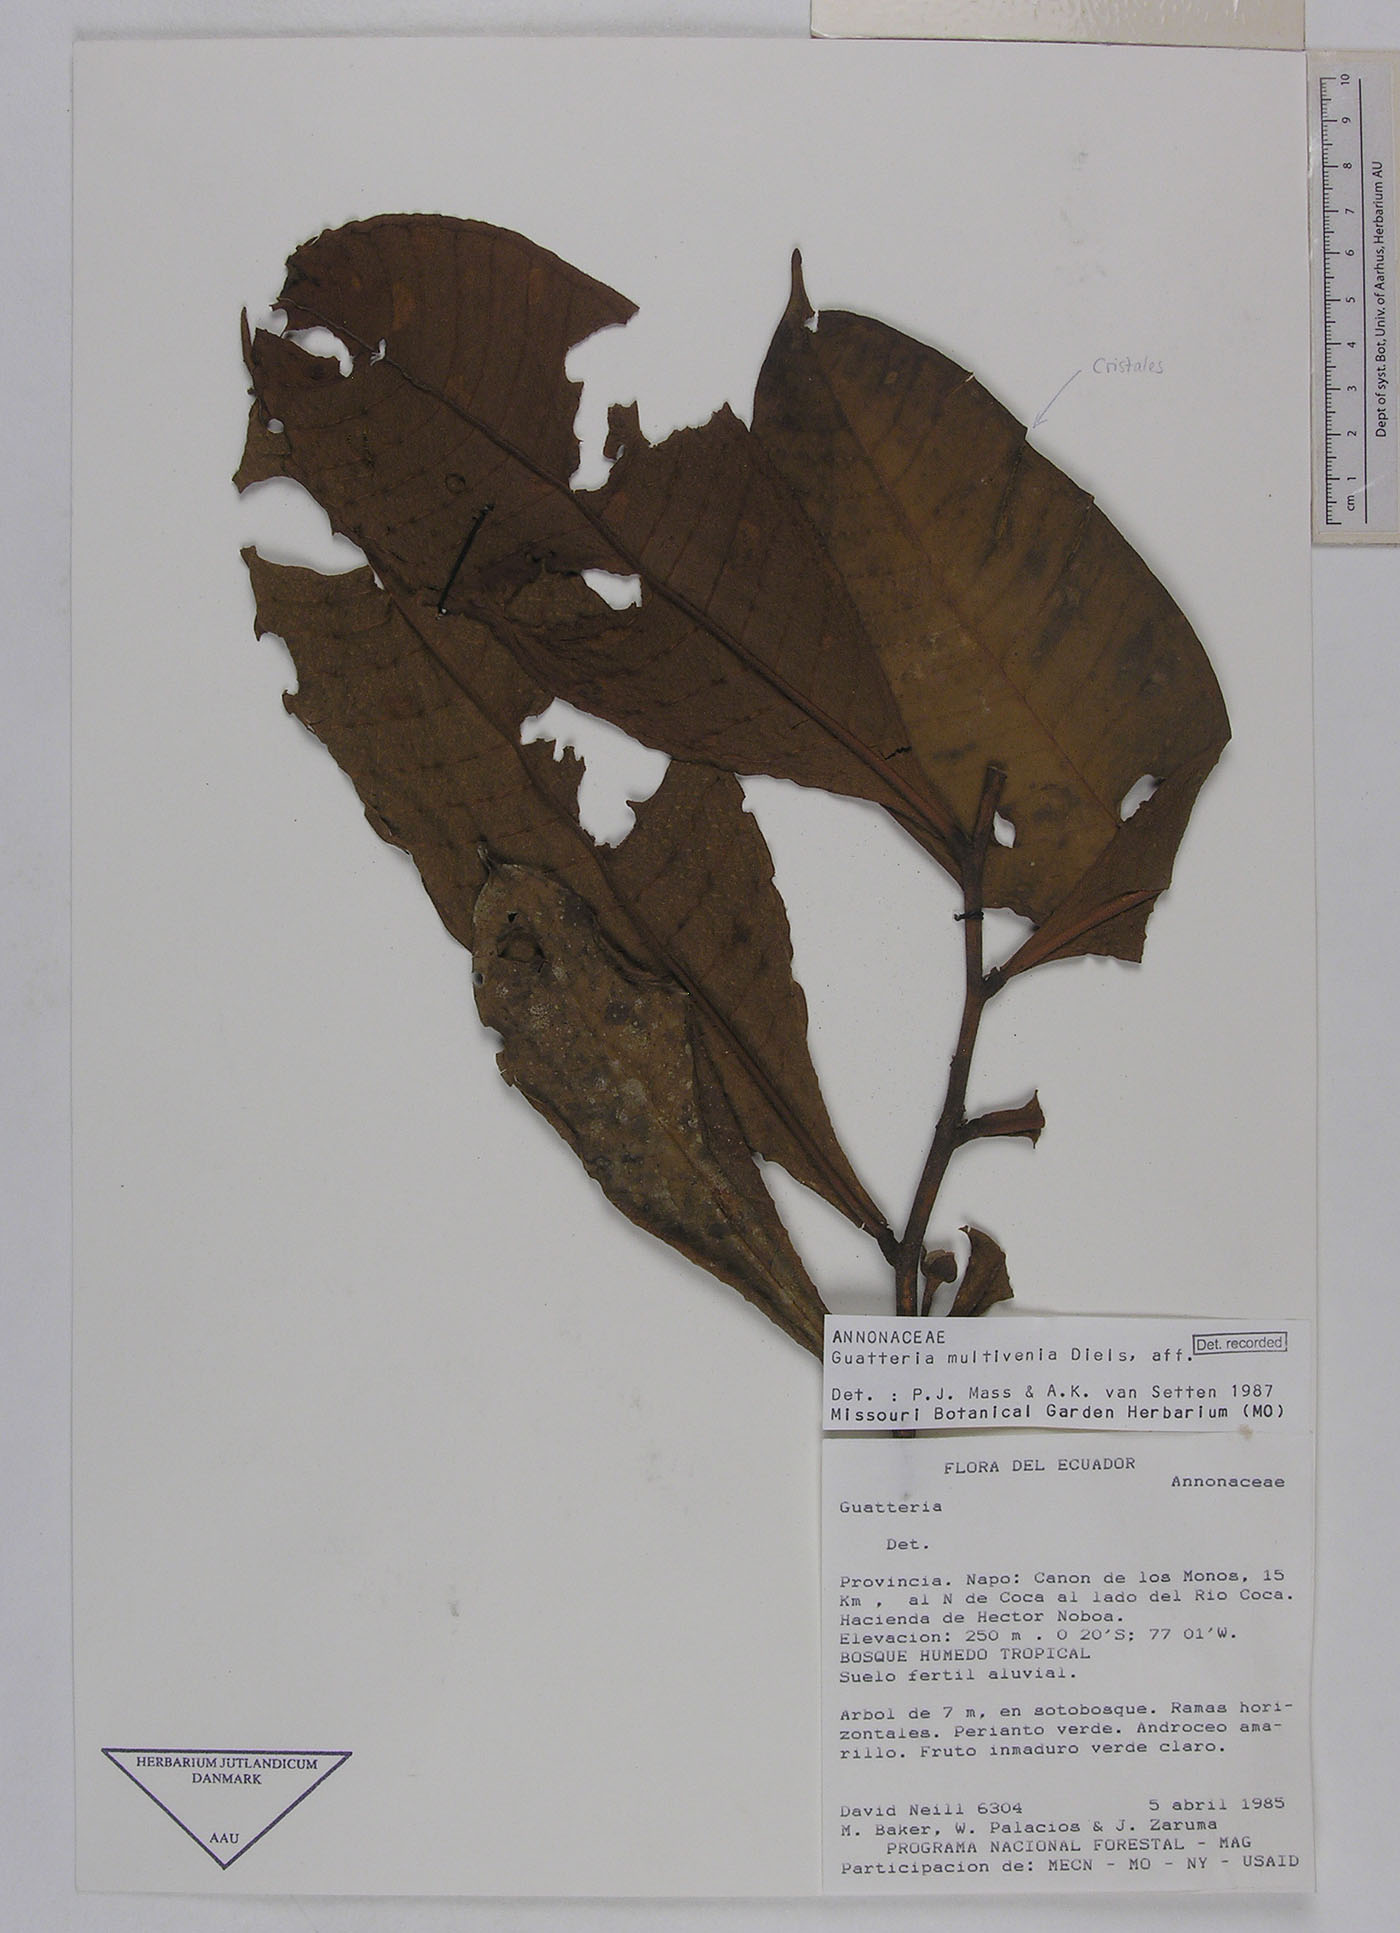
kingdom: Plantae
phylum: Tracheophyta
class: Magnoliopsida
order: Magnoliales
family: Annonaceae
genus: Guatteria
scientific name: Guatteria decurrens
